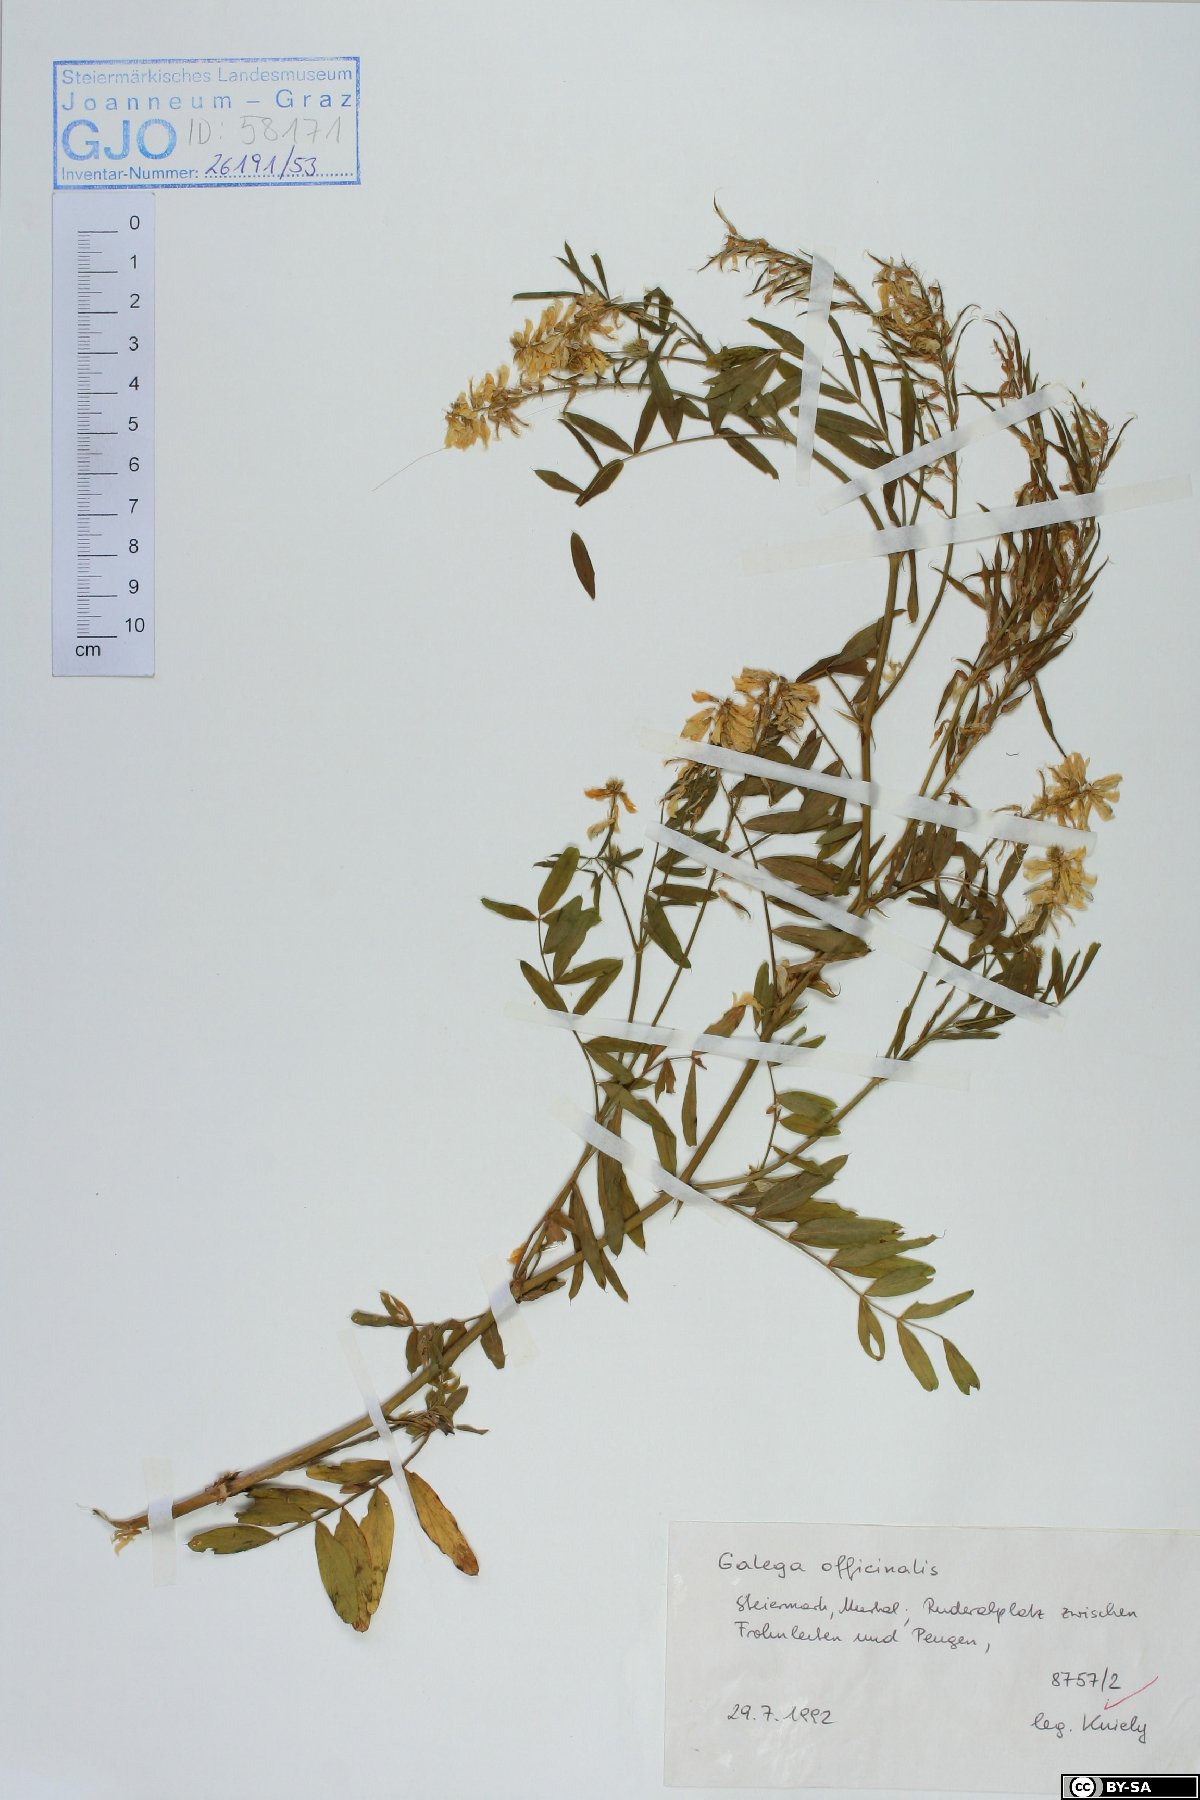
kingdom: Plantae
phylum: Tracheophyta
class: Magnoliopsida
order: Fabales
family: Fabaceae
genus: Galega
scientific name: Galega officinalis
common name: Goat's-rue
